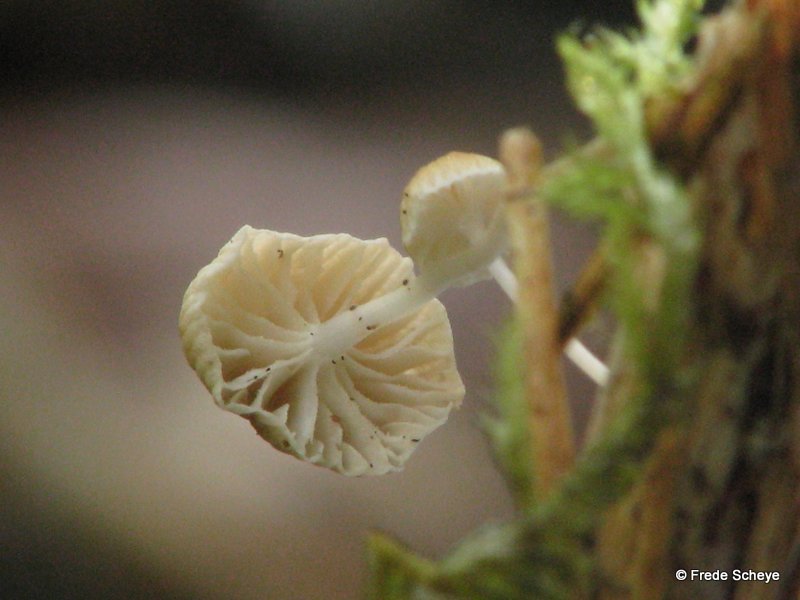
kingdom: Fungi
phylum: Basidiomycota
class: Agaricomycetes
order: Agaricales
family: Porotheleaceae
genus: Phloeomana
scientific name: Phloeomana speirea
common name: kvist-huesvamp
